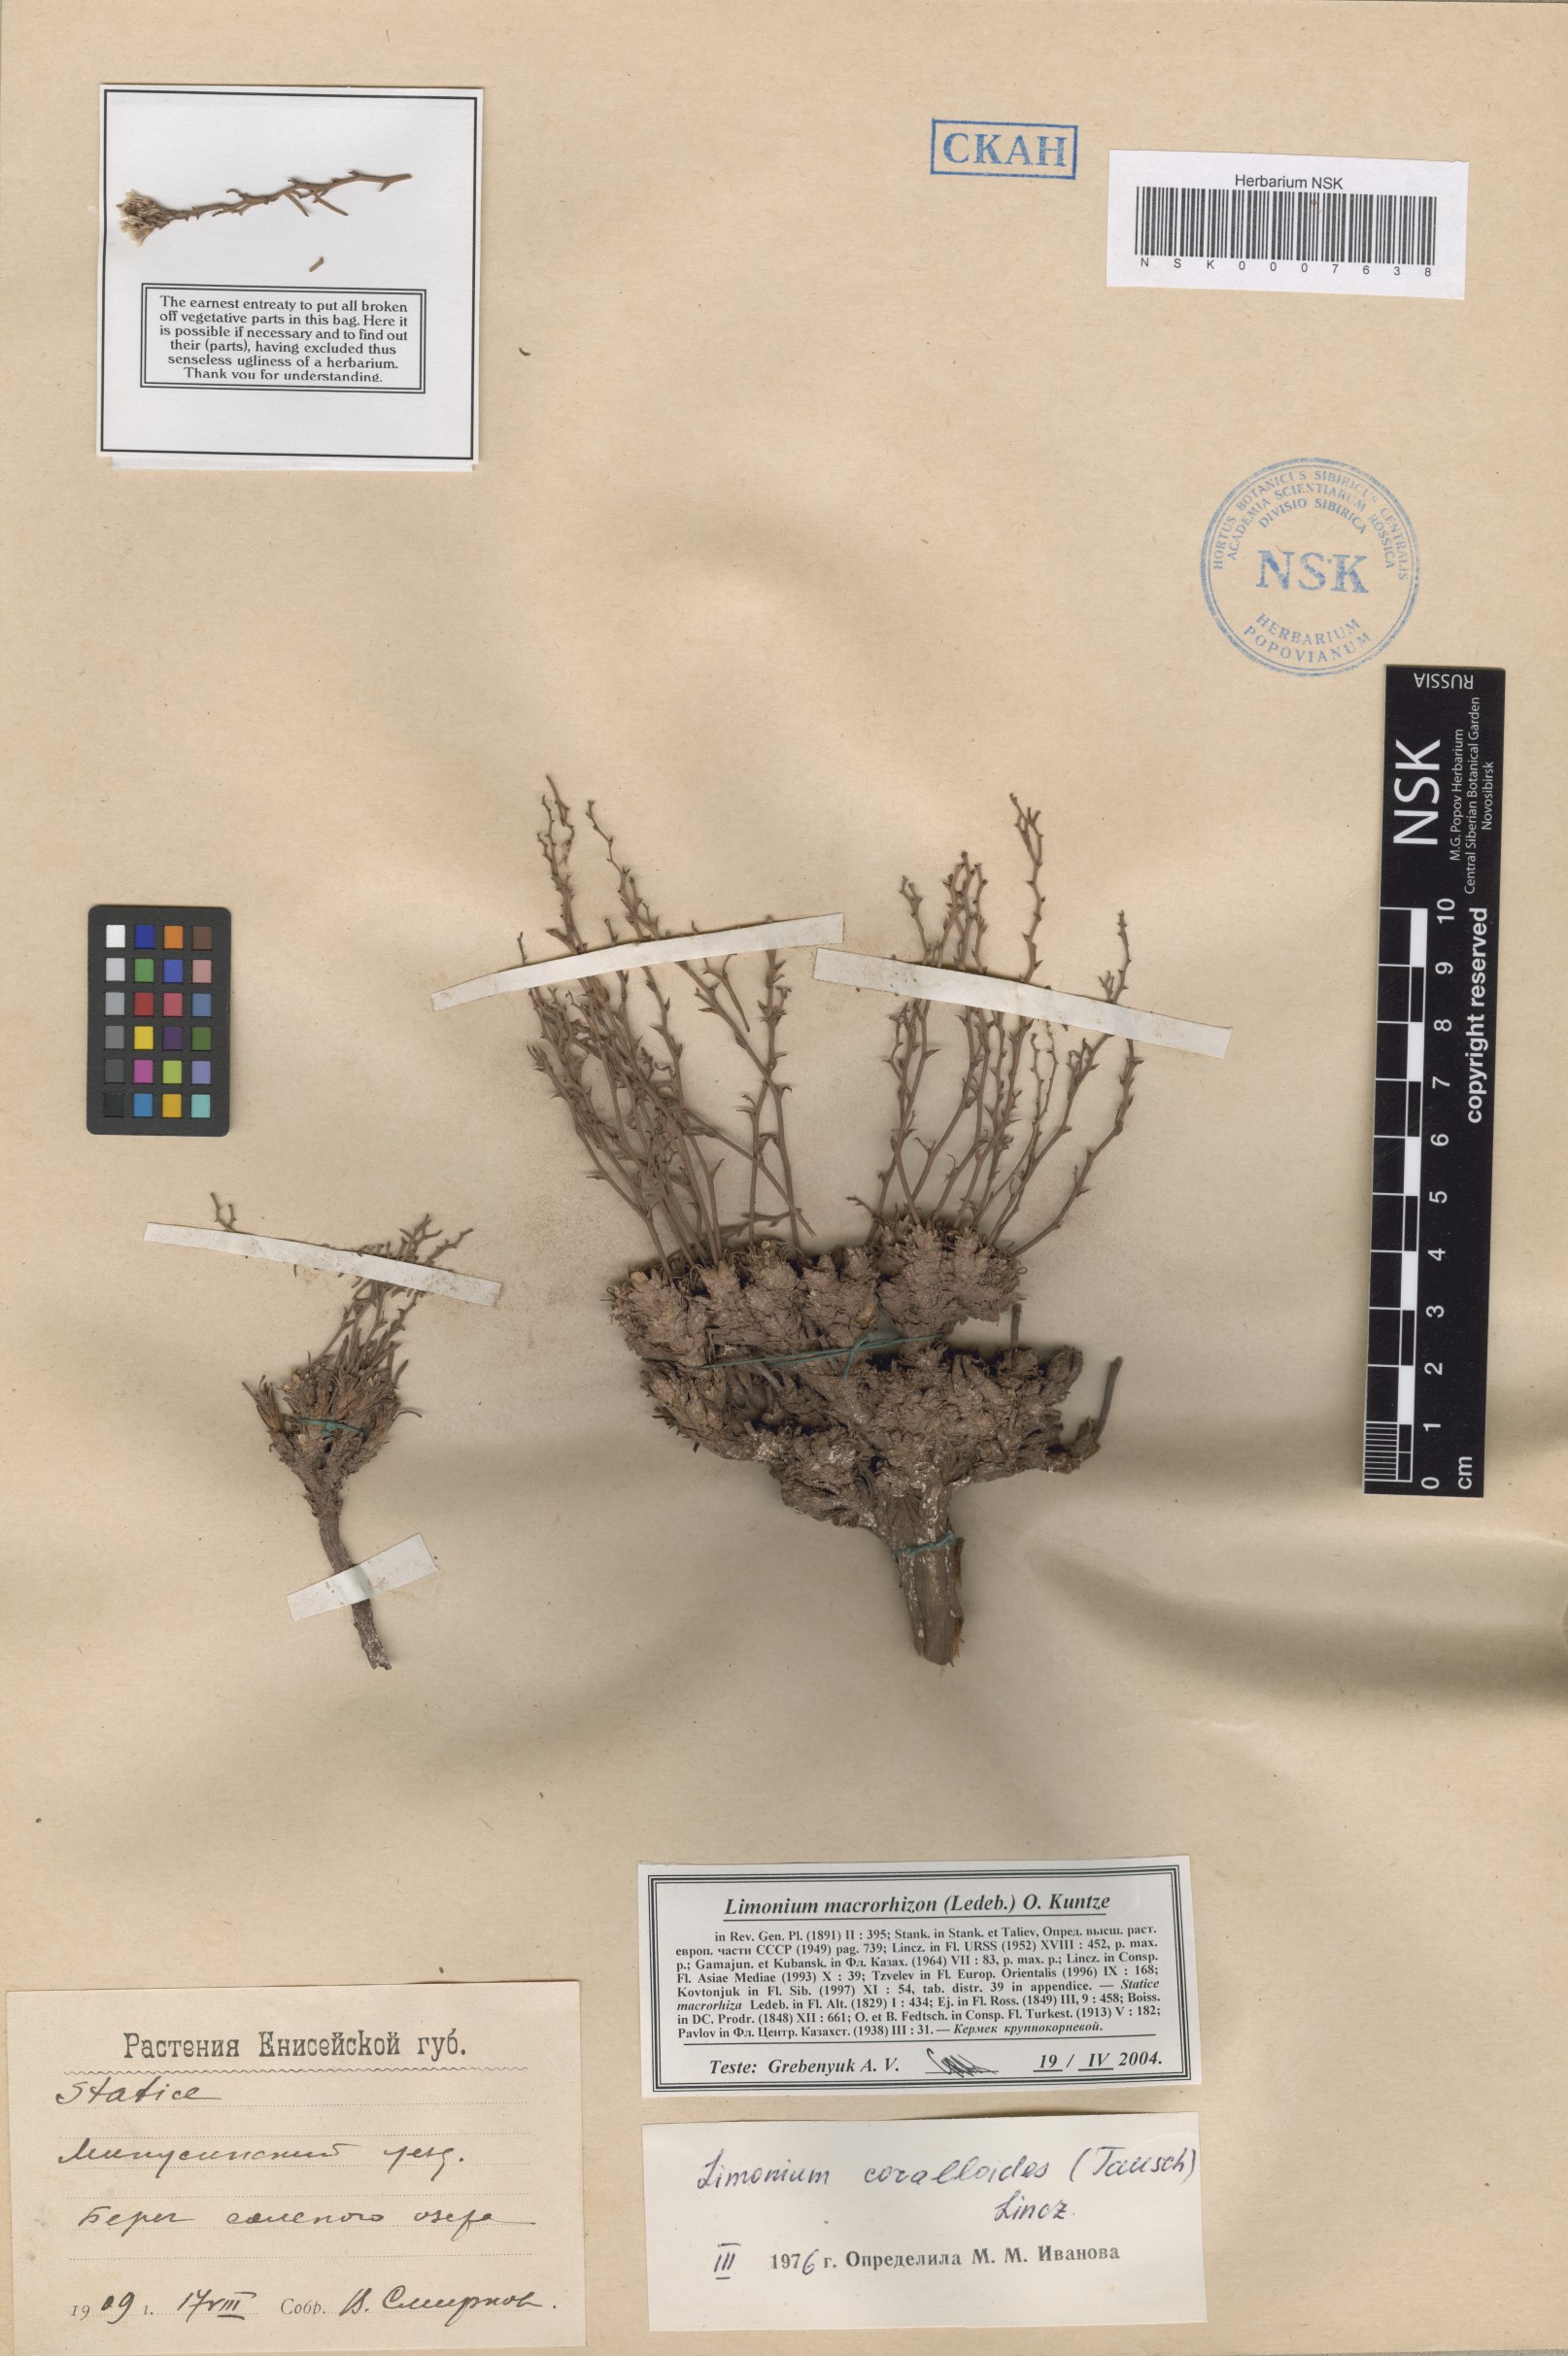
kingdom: Plantae
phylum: Tracheophyta
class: Magnoliopsida
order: Caryophyllales
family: Plumbaginaceae
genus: Limonium
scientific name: Limonium macrorhizum
